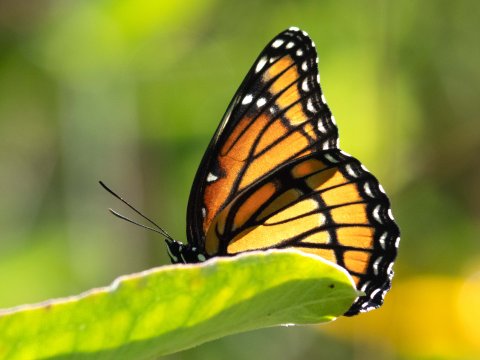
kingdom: Animalia
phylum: Arthropoda
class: Insecta
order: Lepidoptera
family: Nymphalidae
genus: Limenitis
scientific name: Limenitis archippus
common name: Viceroy
